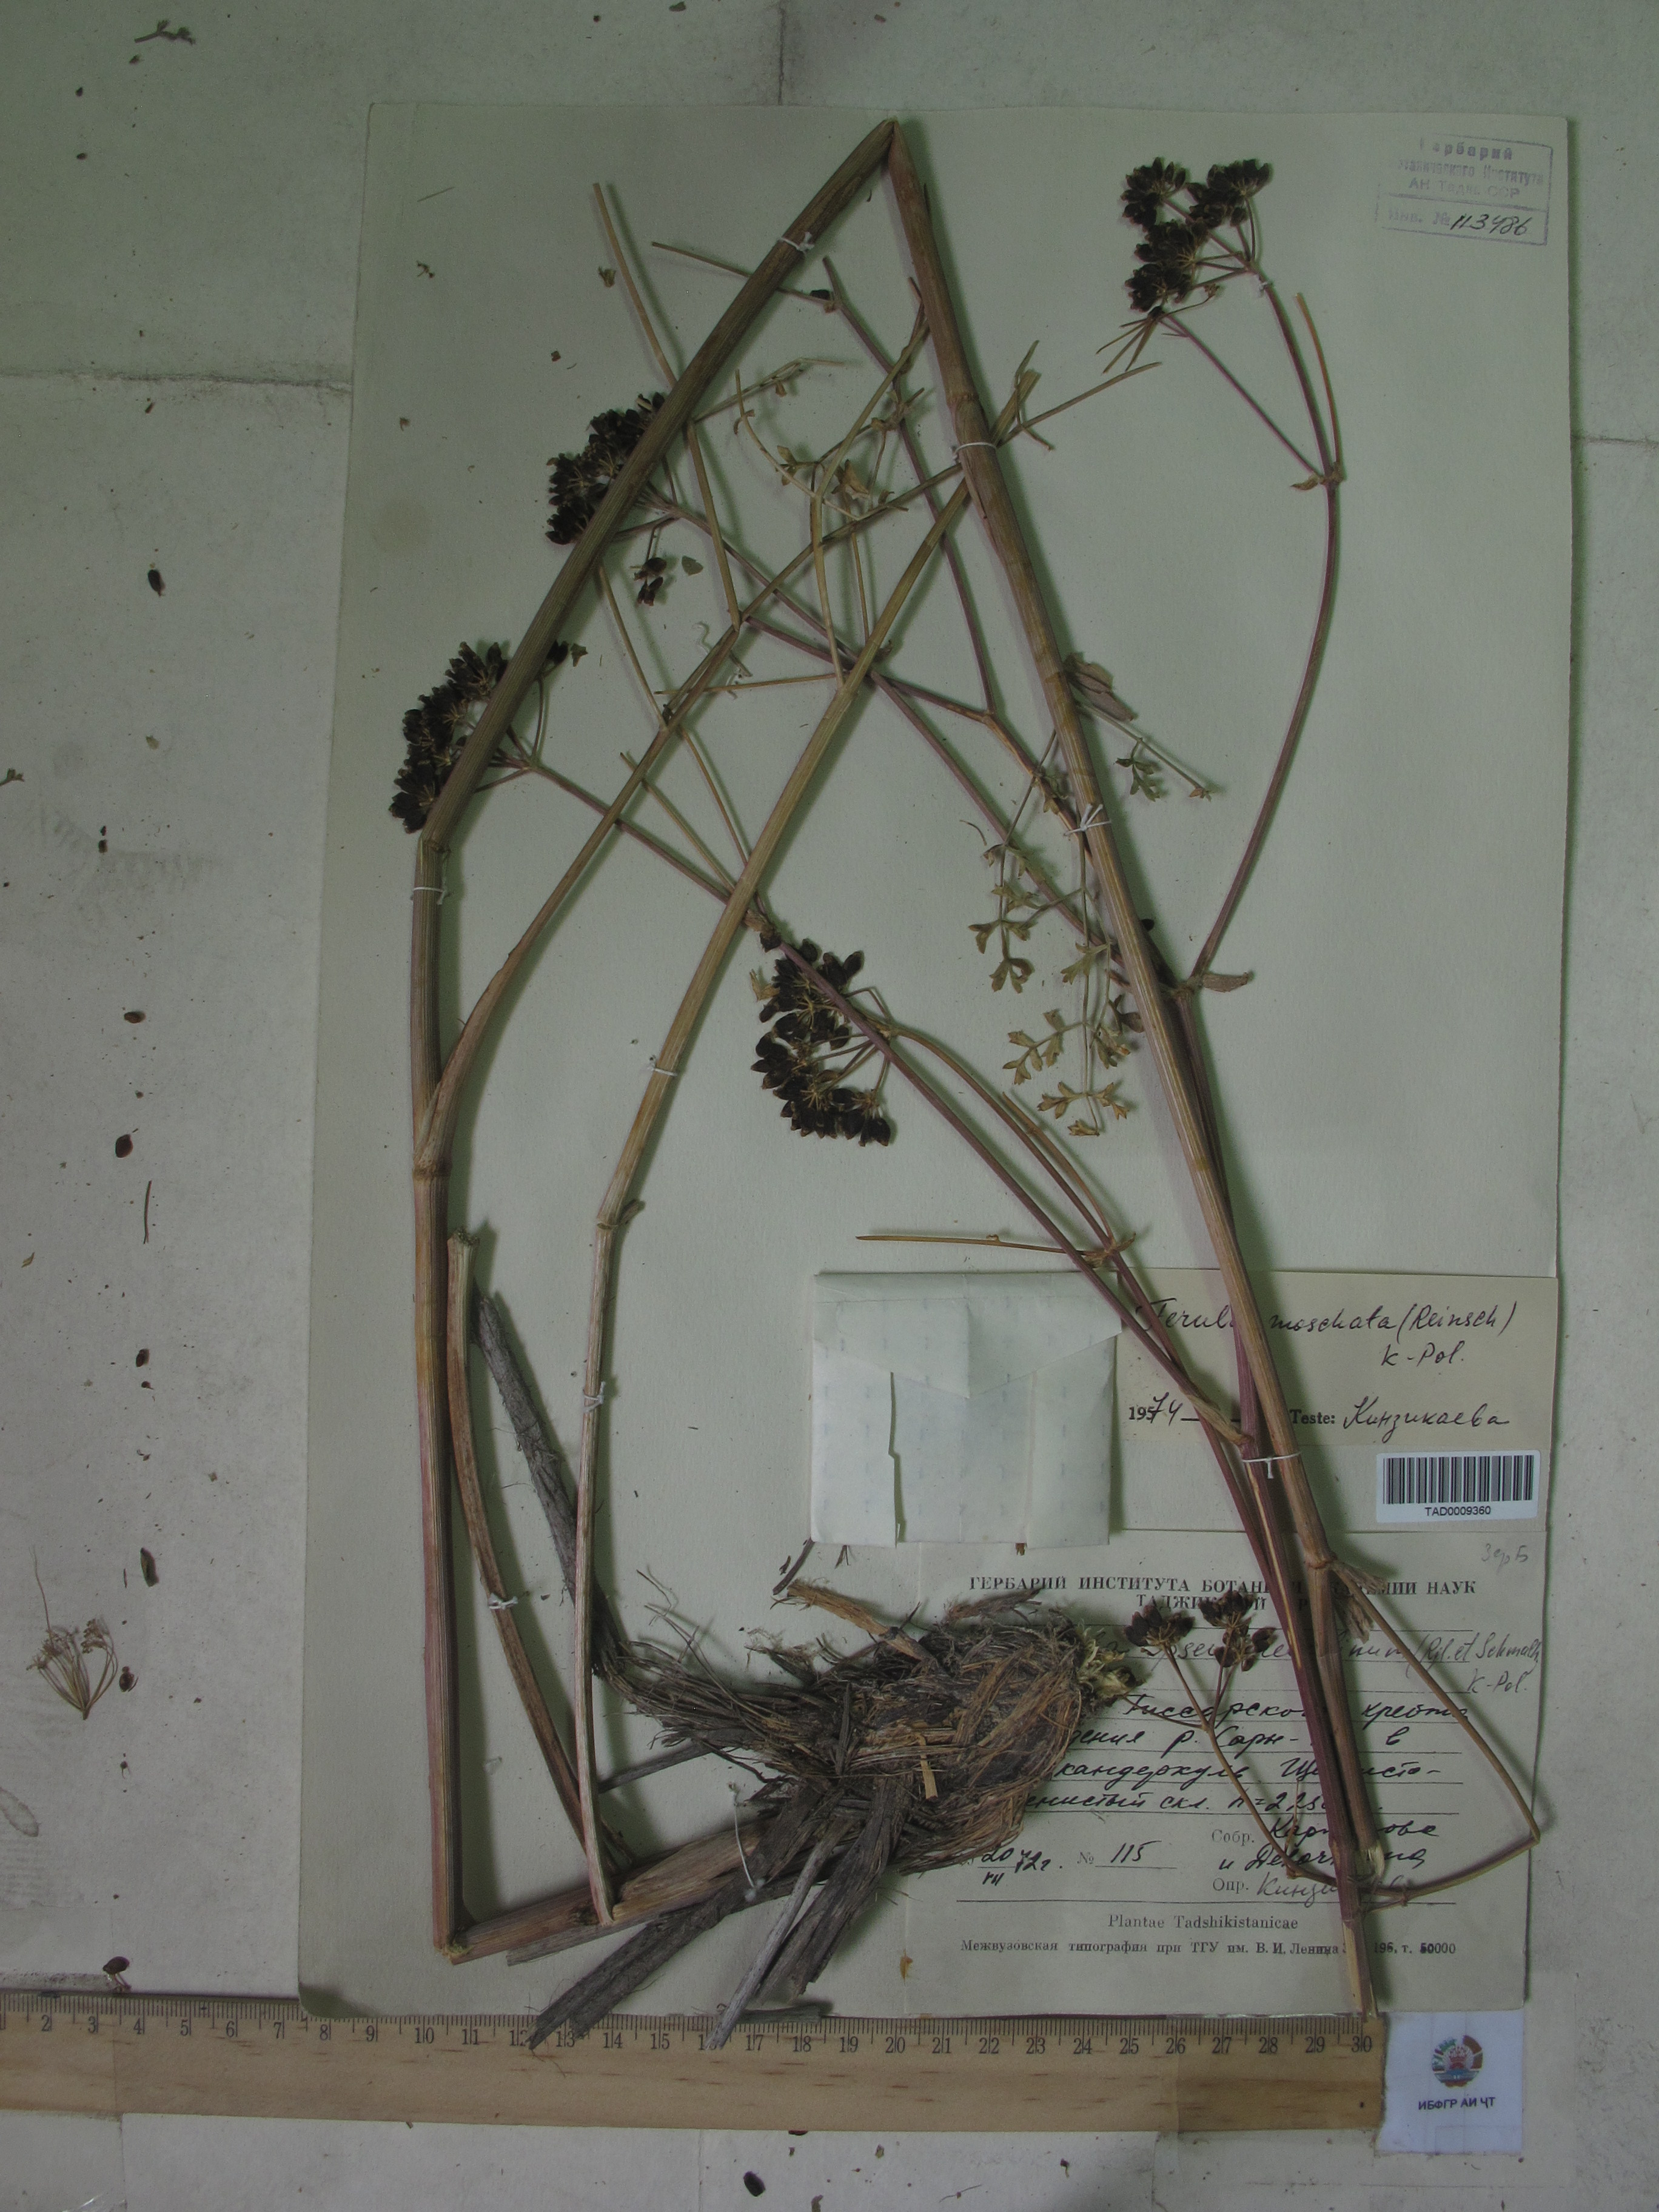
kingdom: Plantae
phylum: Tracheophyta
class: Magnoliopsida
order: Apiales
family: Apiaceae
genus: Ferula
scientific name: Ferula moschata
